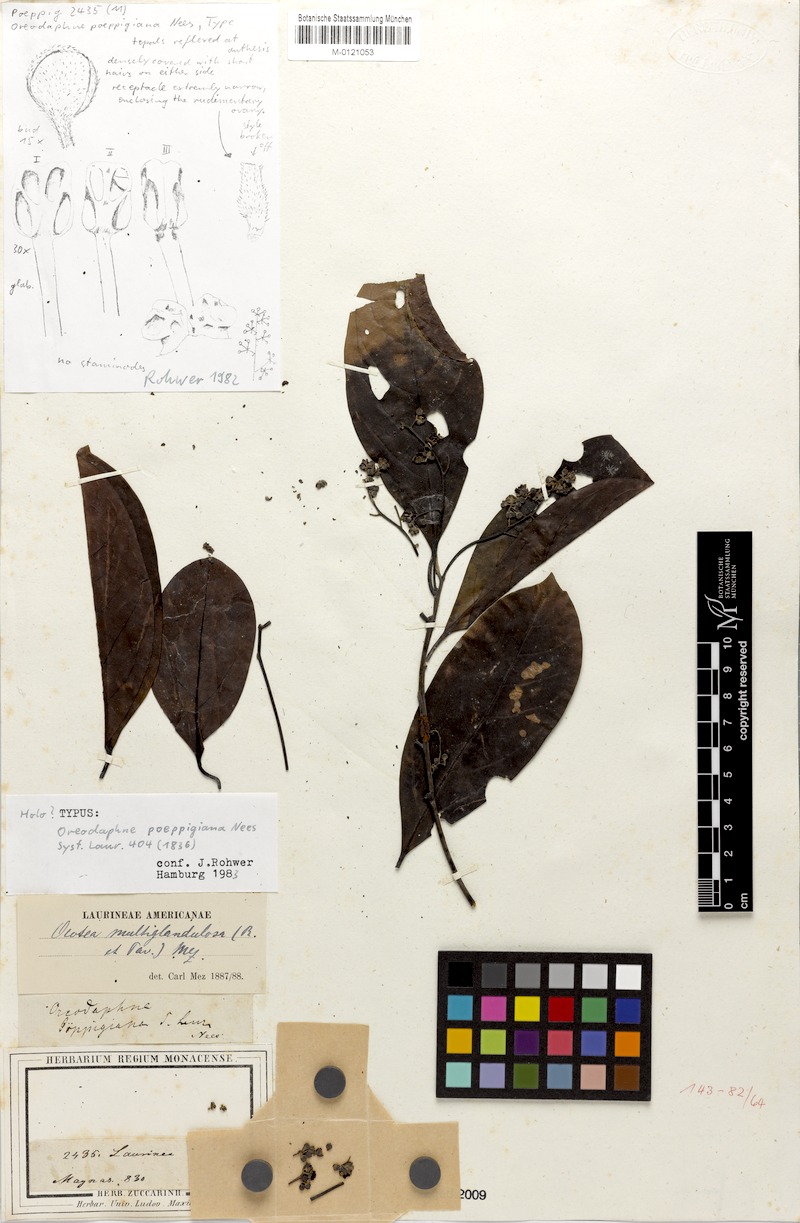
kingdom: Plantae
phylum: Tracheophyta
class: Magnoliopsida
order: Laurales
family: Lauraceae
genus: Ocotea
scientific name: Ocotea floribunda
